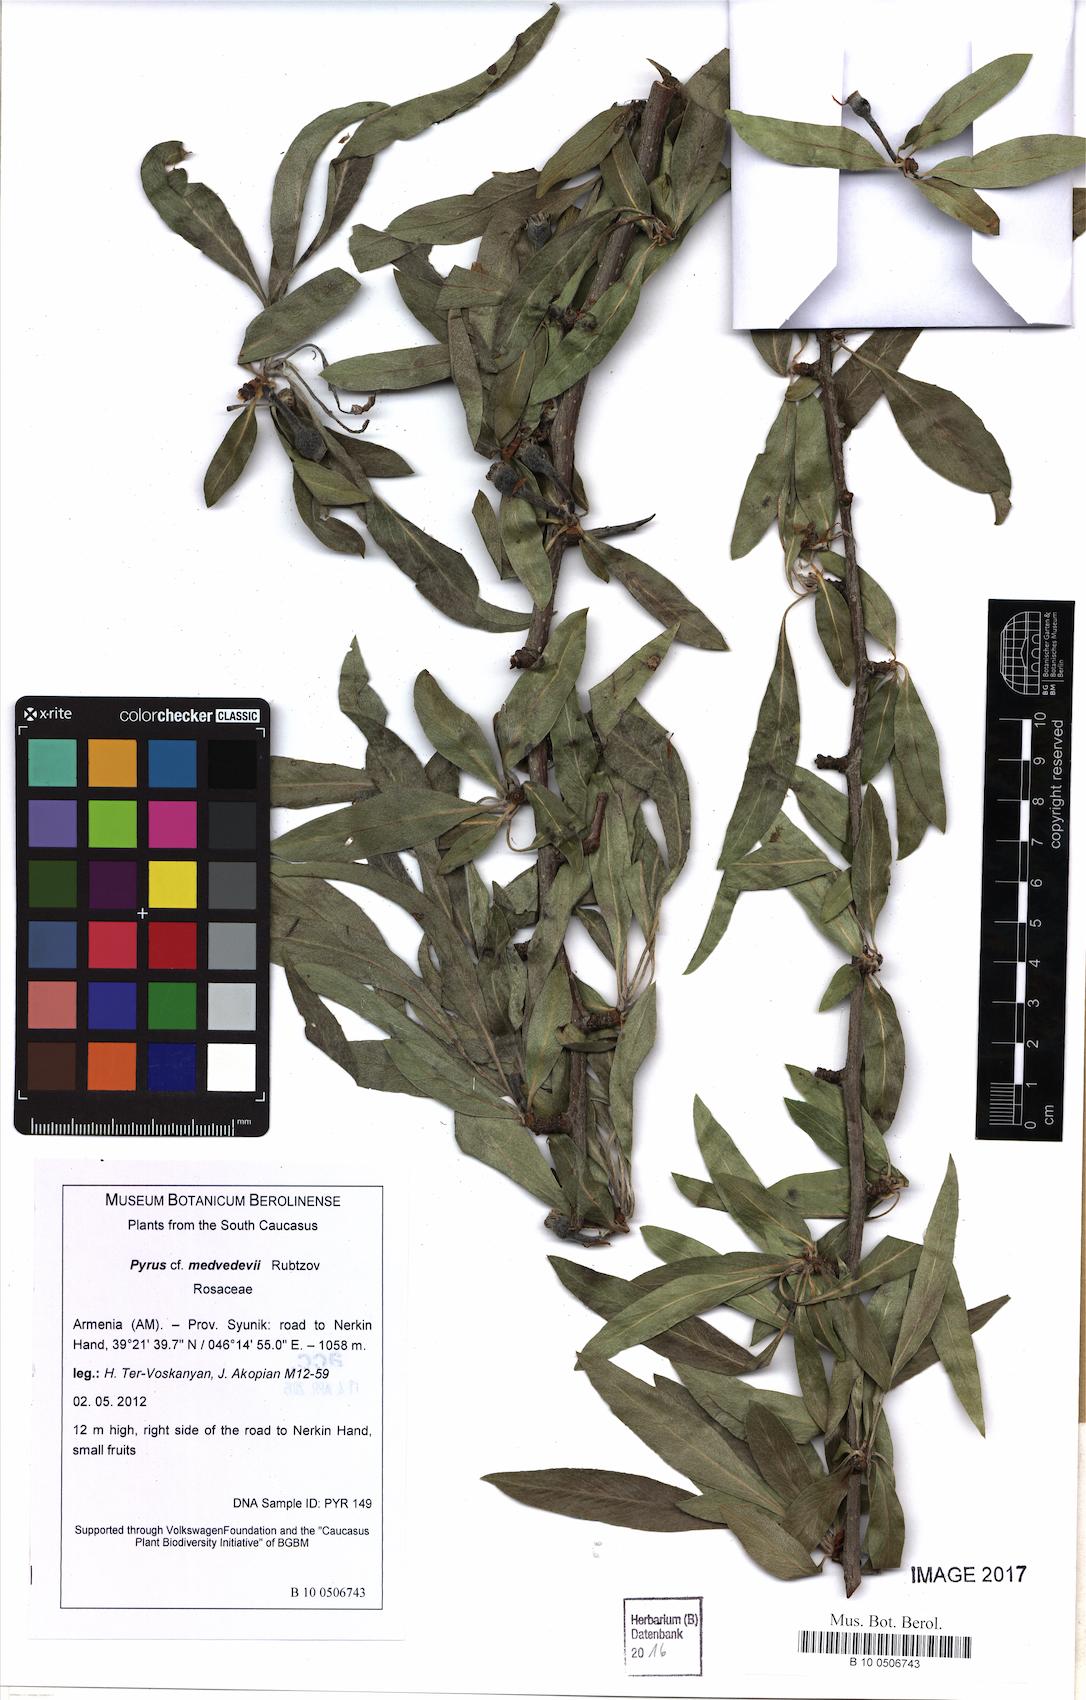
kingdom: Plantae
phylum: Tracheophyta
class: Magnoliopsida
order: Rosales
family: Rosaceae
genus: Pyrus
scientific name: Pyrus medvedevii
